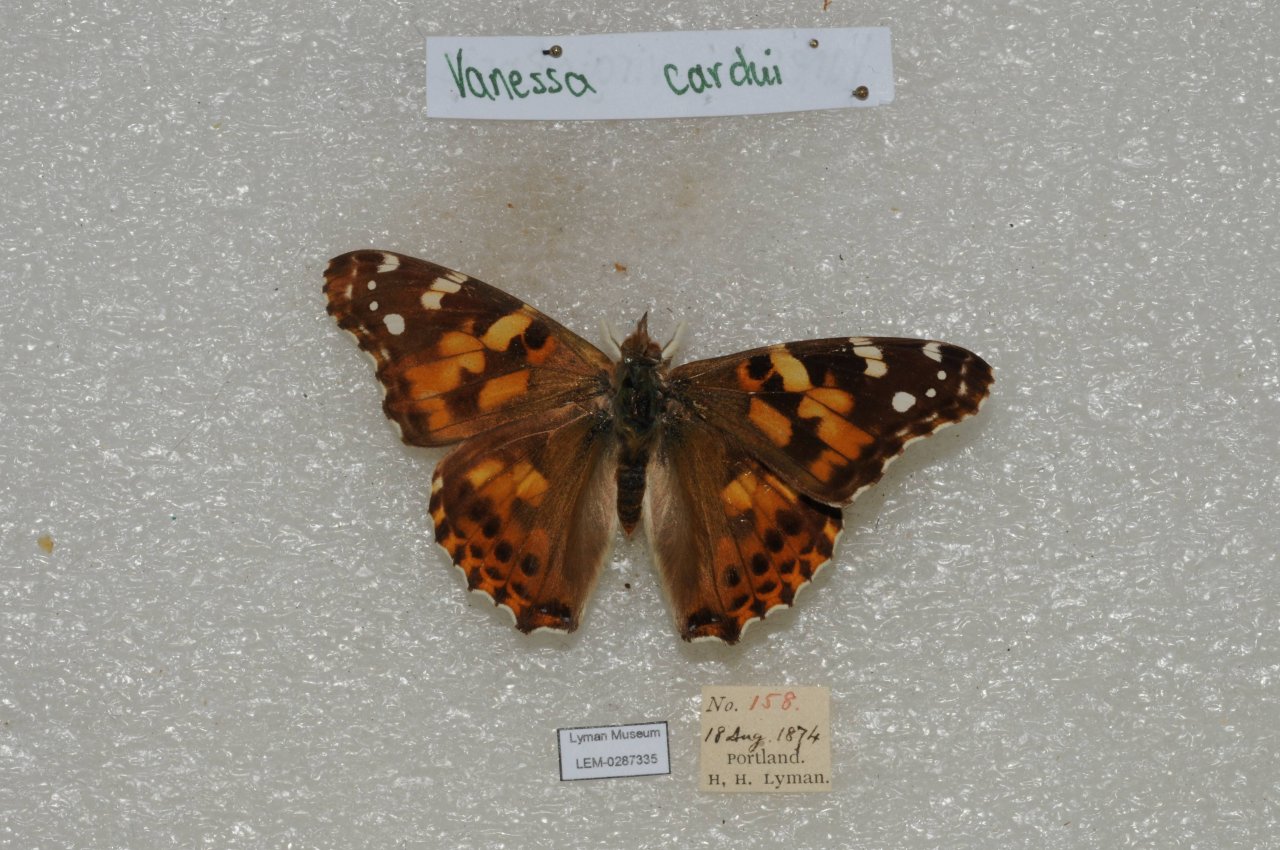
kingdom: Animalia
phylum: Arthropoda
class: Insecta
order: Lepidoptera
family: Nymphalidae
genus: Vanessa
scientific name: Vanessa cardui
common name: Painted Lady
